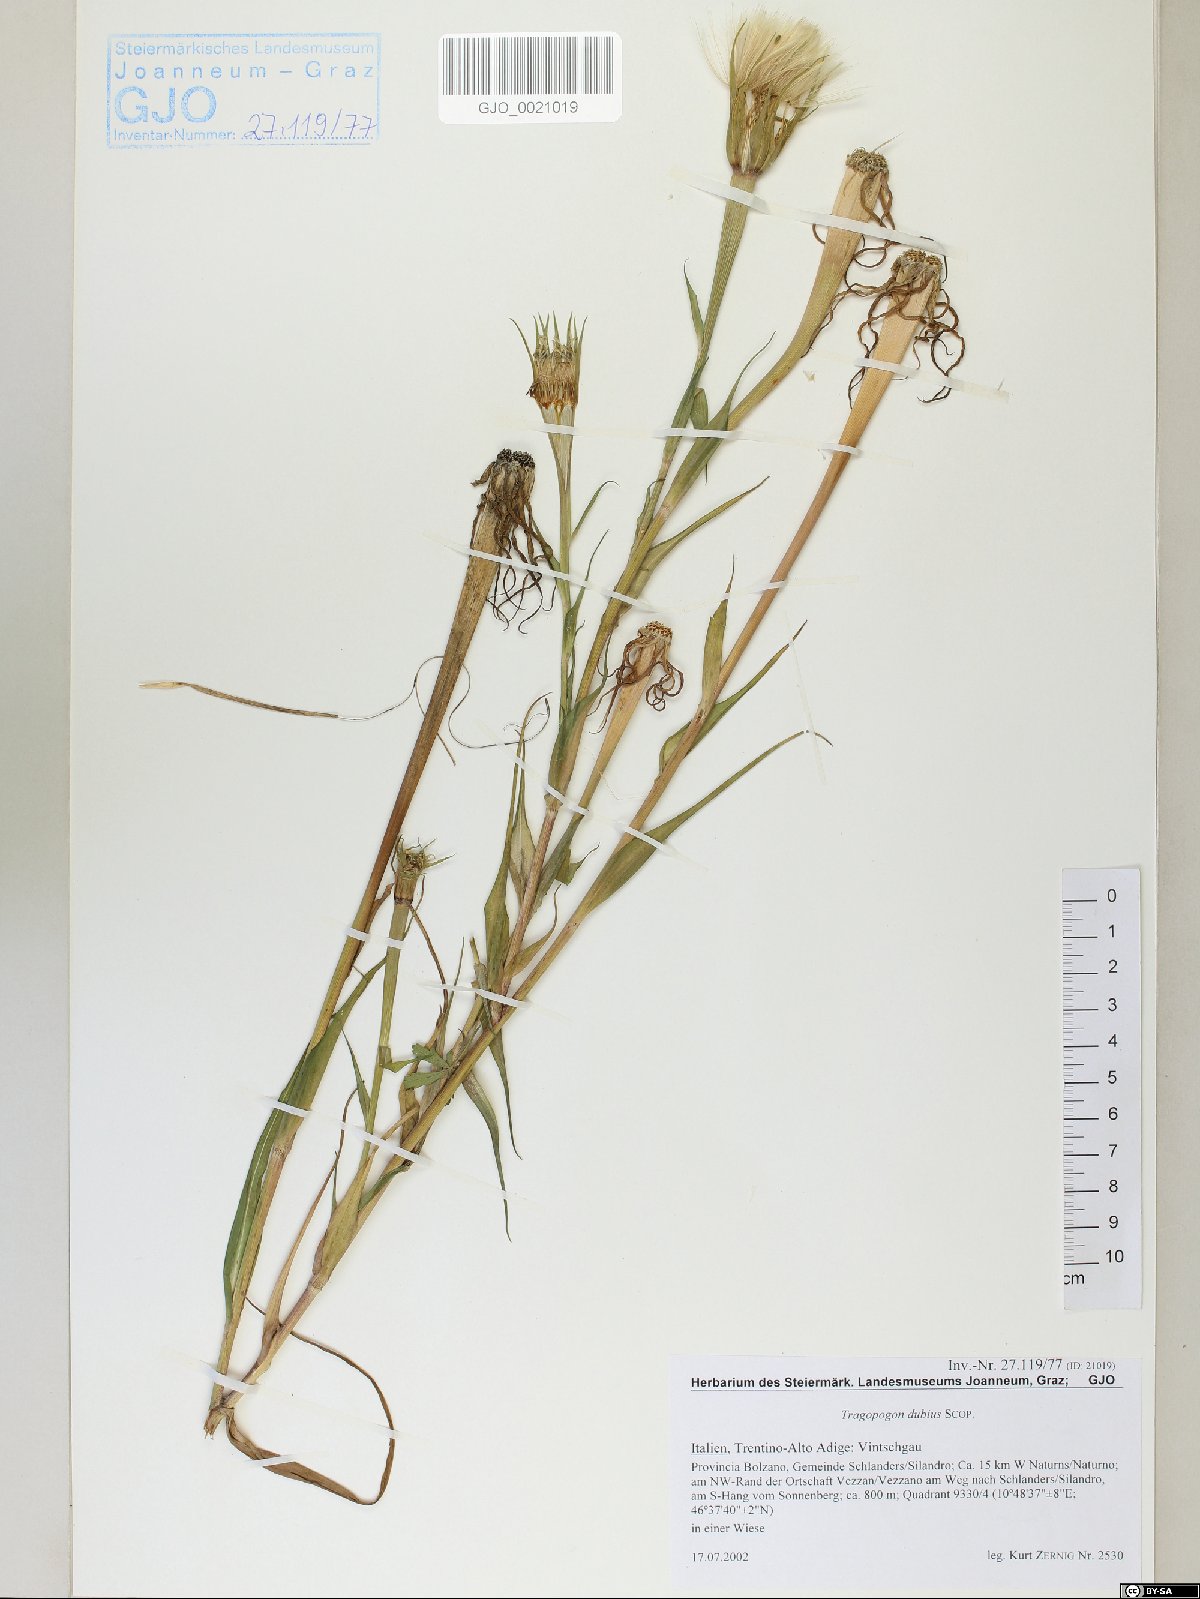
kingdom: Plantae
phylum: Tracheophyta
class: Magnoliopsida
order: Asterales
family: Asteraceae
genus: Tragopogon
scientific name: Tragopogon dubius
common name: Yellow salsify
